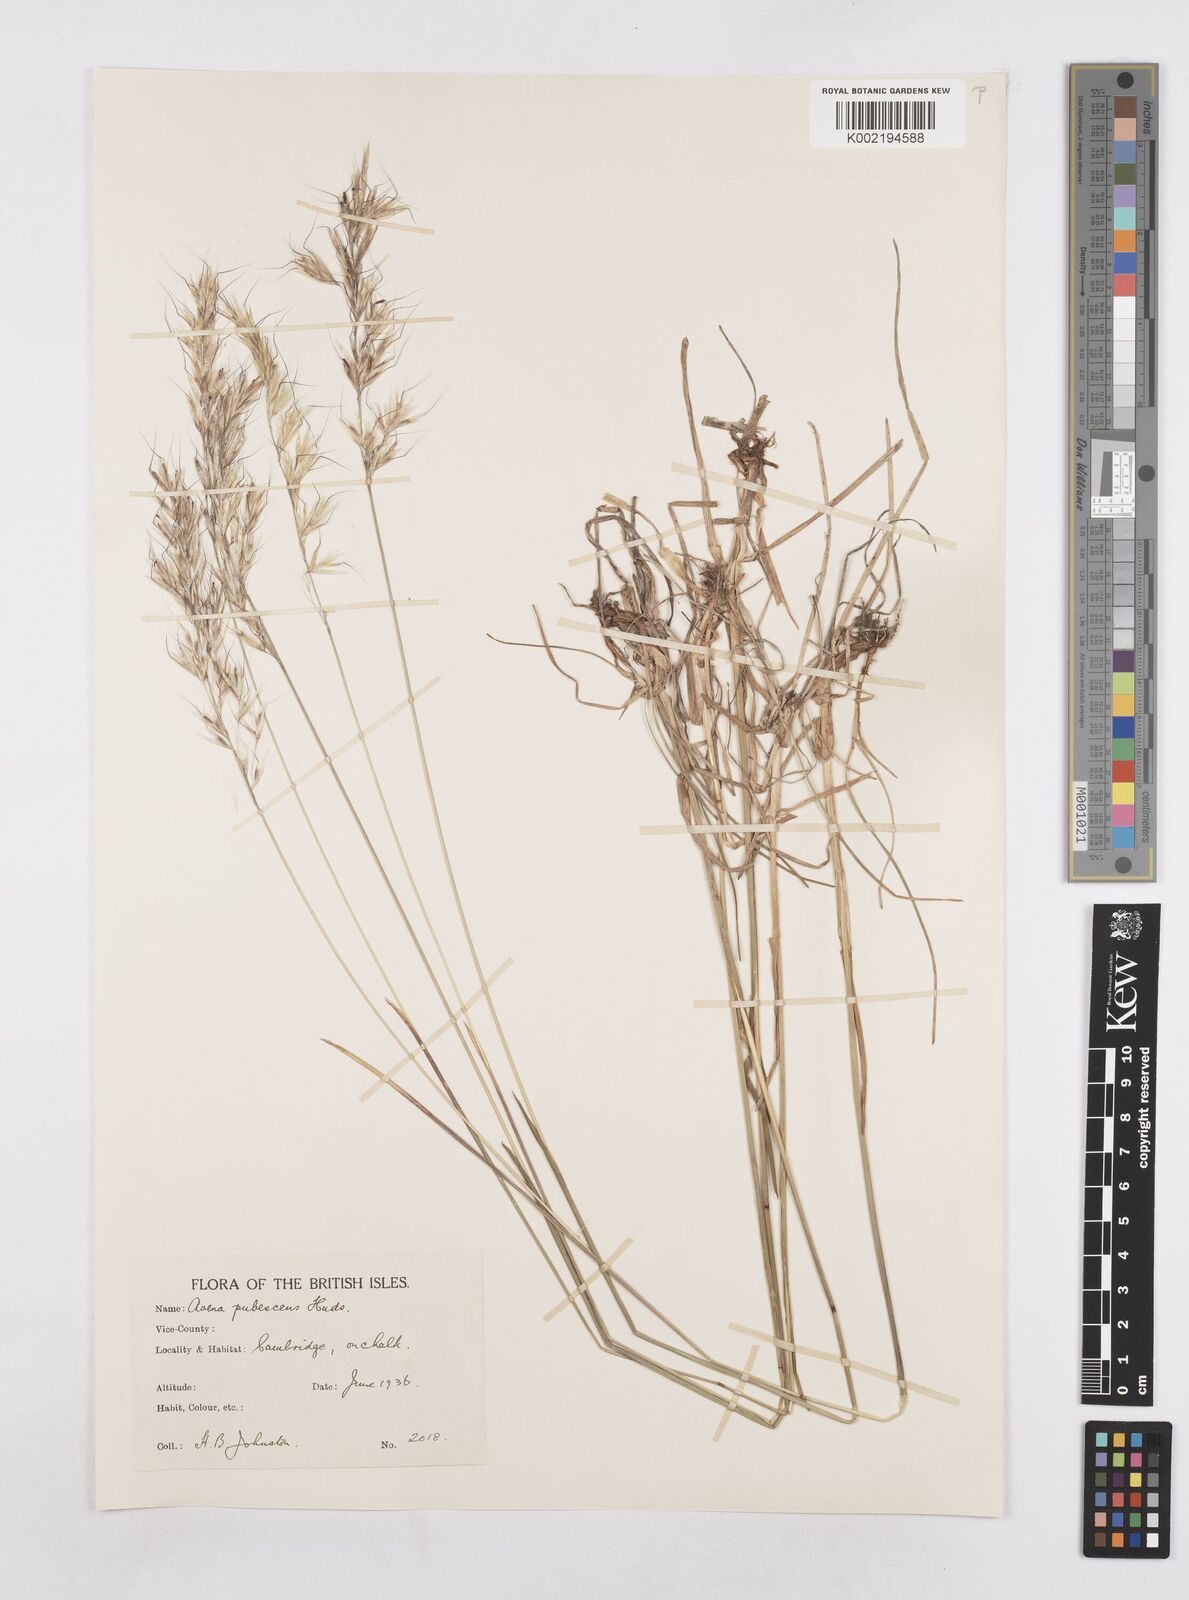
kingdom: Plantae
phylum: Tracheophyta
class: Liliopsida
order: Poales
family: Poaceae
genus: Avenula
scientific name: Avenula pubescens
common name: Downy alpine oatgrass
